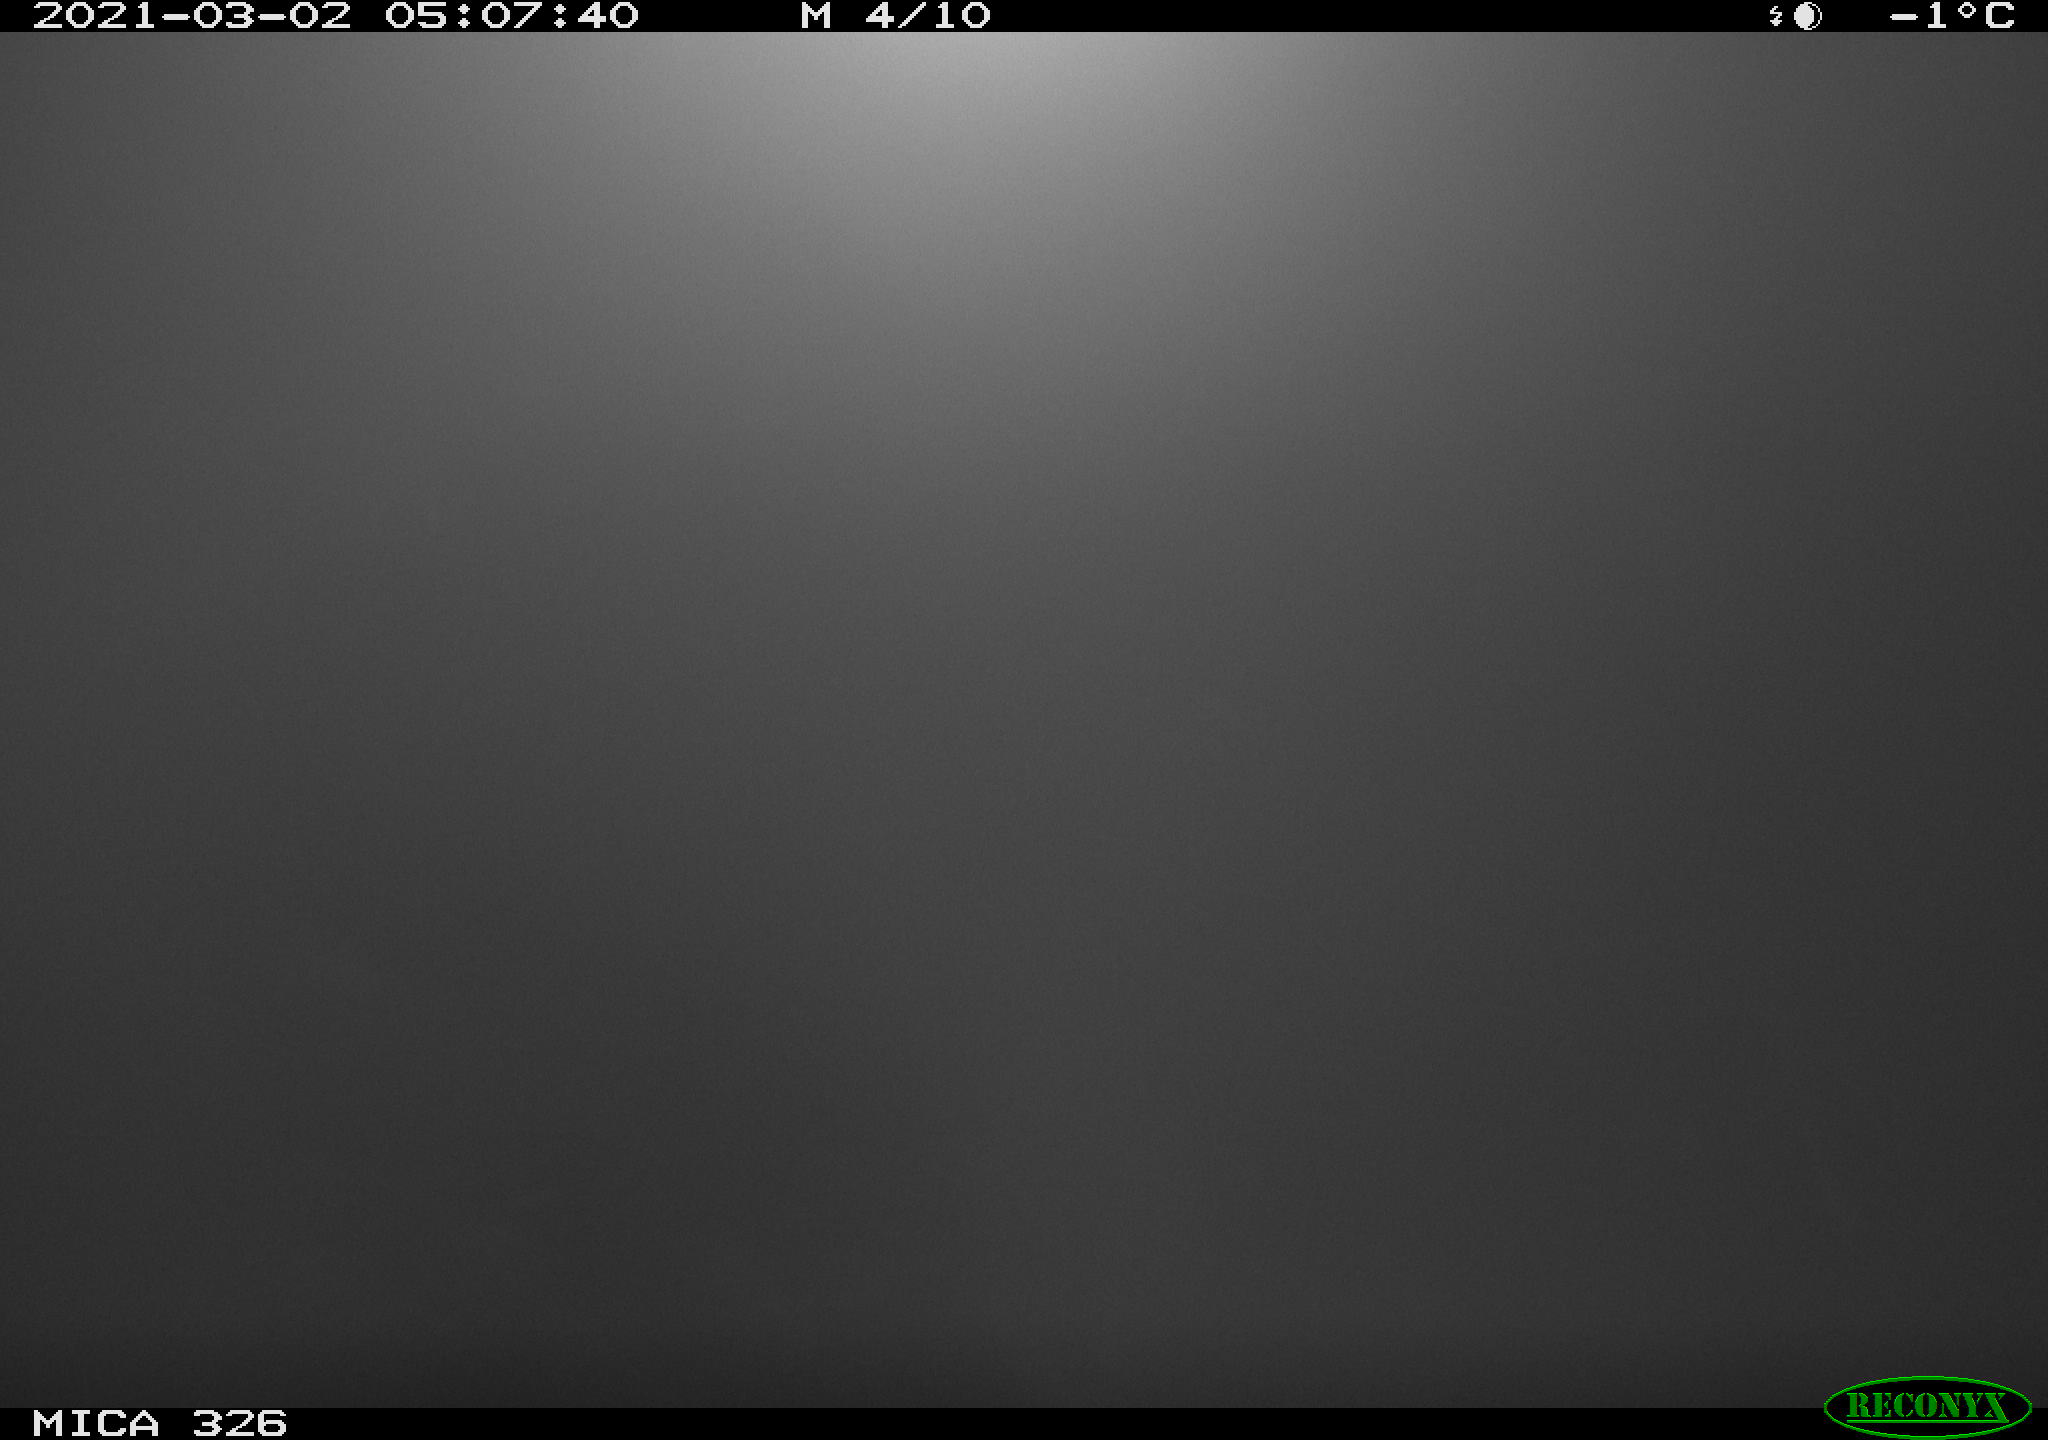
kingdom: Animalia
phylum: Chordata
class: Mammalia
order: Carnivora
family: Mustelidae
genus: Lutra
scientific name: Lutra lutra
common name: European otter
